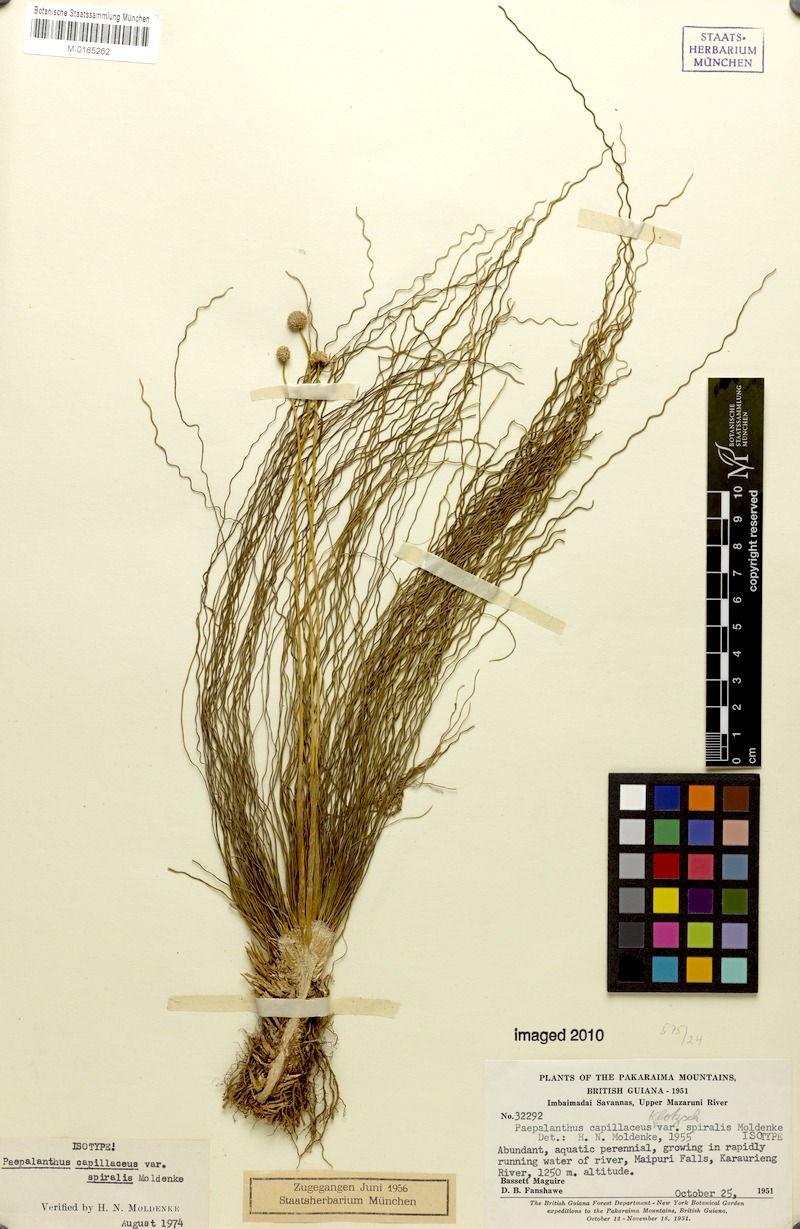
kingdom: Plantae
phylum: Tracheophyta
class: Liliopsida
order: Poales
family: Eriocaulaceae
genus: Rondonanthus
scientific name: Rondonanthus capillaceus
